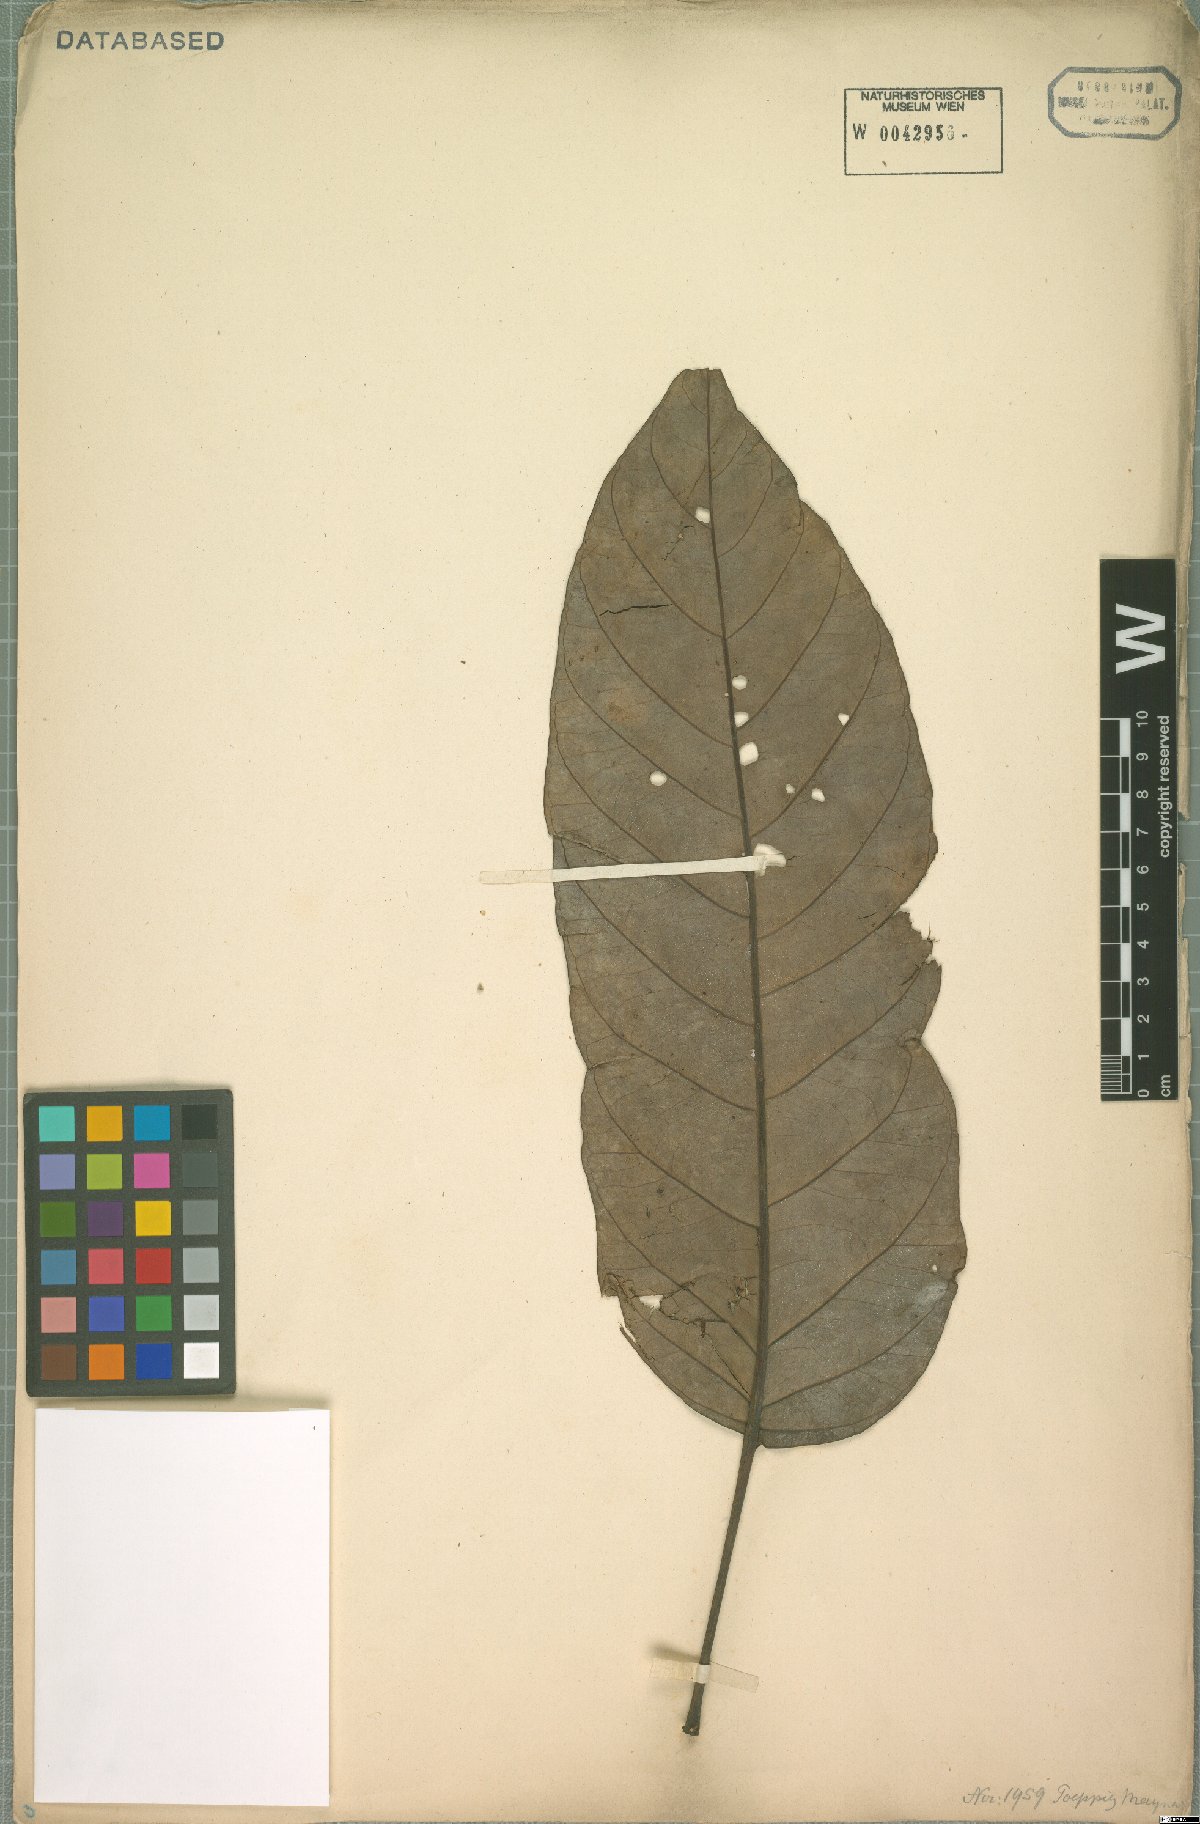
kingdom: Plantae
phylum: Tracheophyta
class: Magnoliopsida
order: Apiales
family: Araliaceae
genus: Didymopanax
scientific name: Didymopanax morototoni
